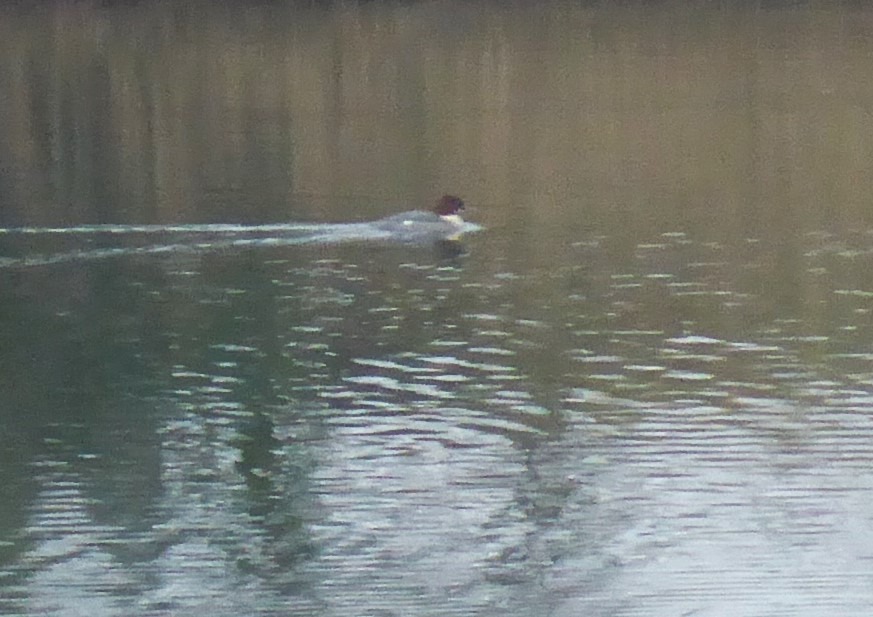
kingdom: Animalia
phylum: Chordata
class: Aves
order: Anseriformes
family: Anatidae
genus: Mergus
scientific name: Mergus merganser
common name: Stor skallesluger
